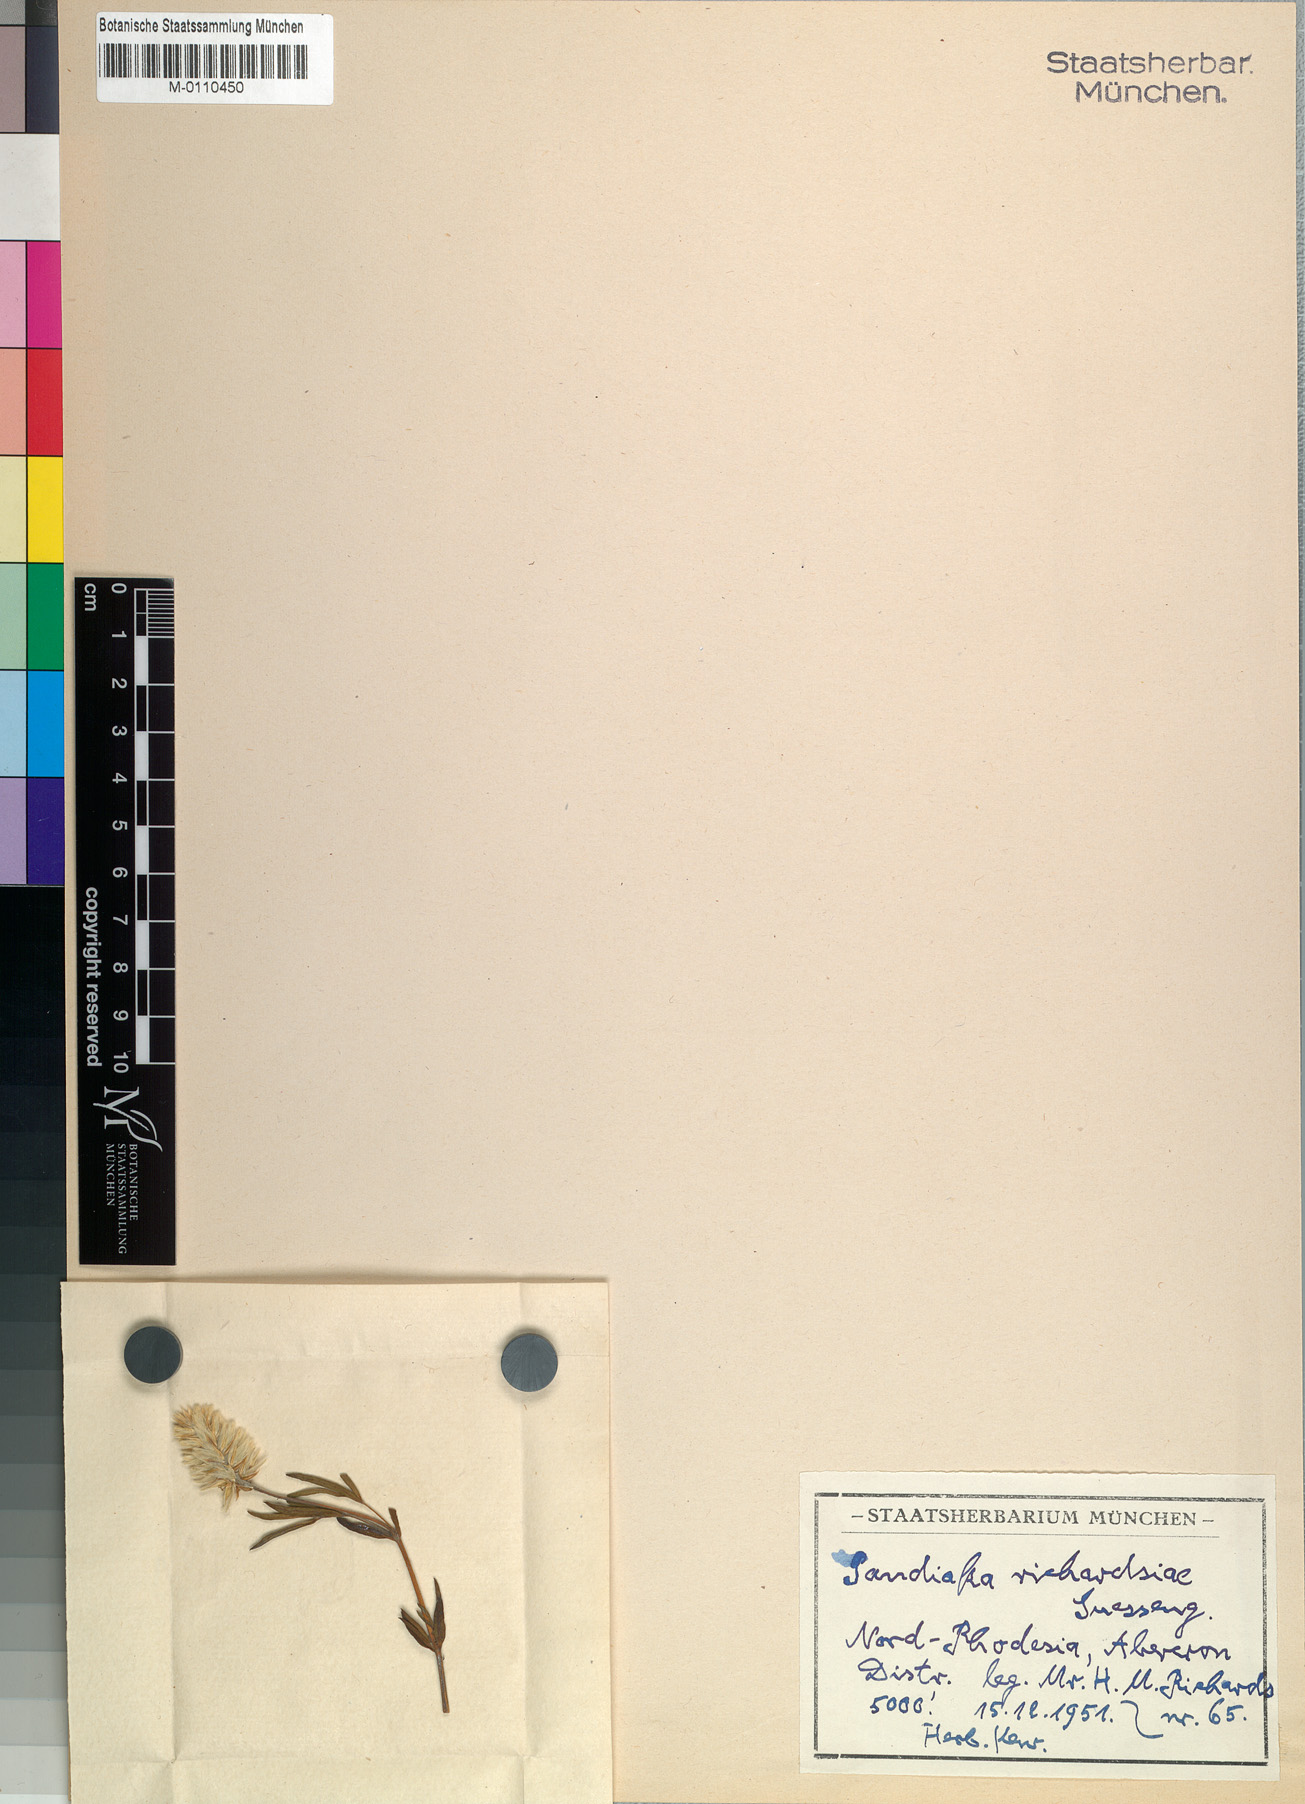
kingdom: Plantae
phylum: Tracheophyta
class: Magnoliopsida
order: Caryophyllales
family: Amaranthaceae
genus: Pandiaka
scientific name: Pandiaka richardsiae
